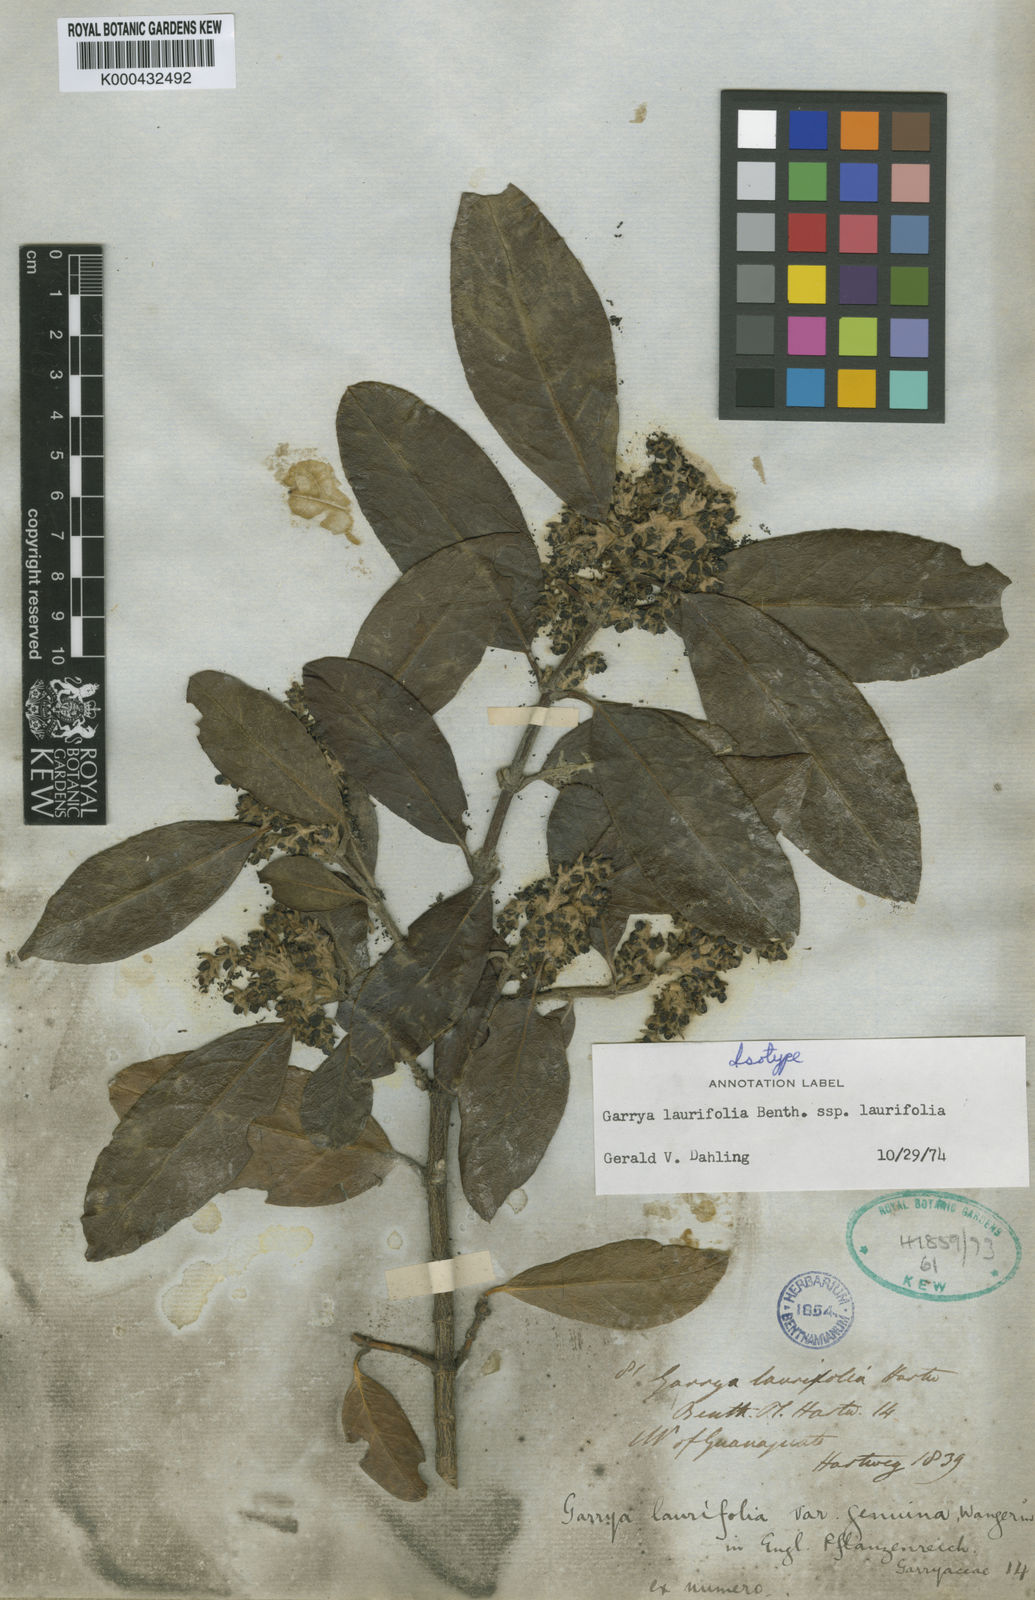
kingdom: Plantae
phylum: Tracheophyta
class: Magnoliopsida
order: Garryales
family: Garryaceae
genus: Garrya
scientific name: Garrya laurifolia
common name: Cuachichic
